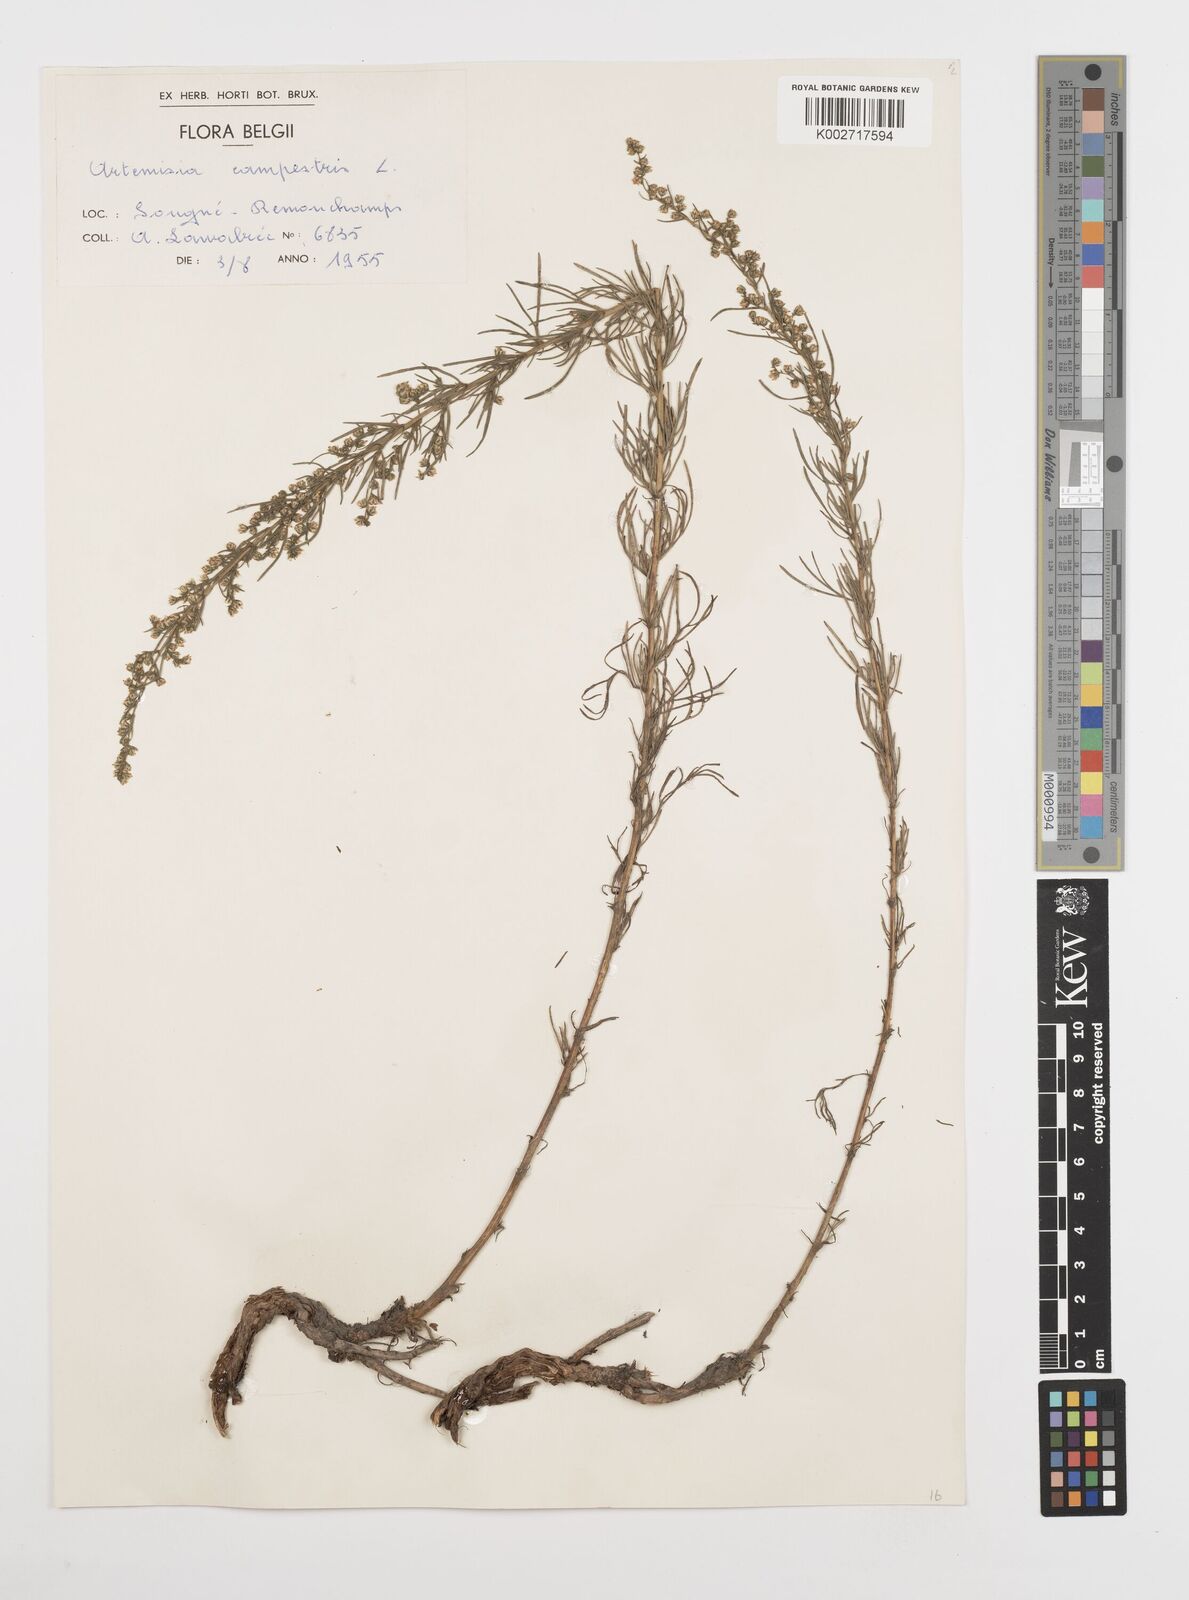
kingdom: Plantae
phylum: Tracheophyta
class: Magnoliopsida
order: Asterales
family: Asteraceae
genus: Artemisia
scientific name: Artemisia campestris
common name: Field wormwood
